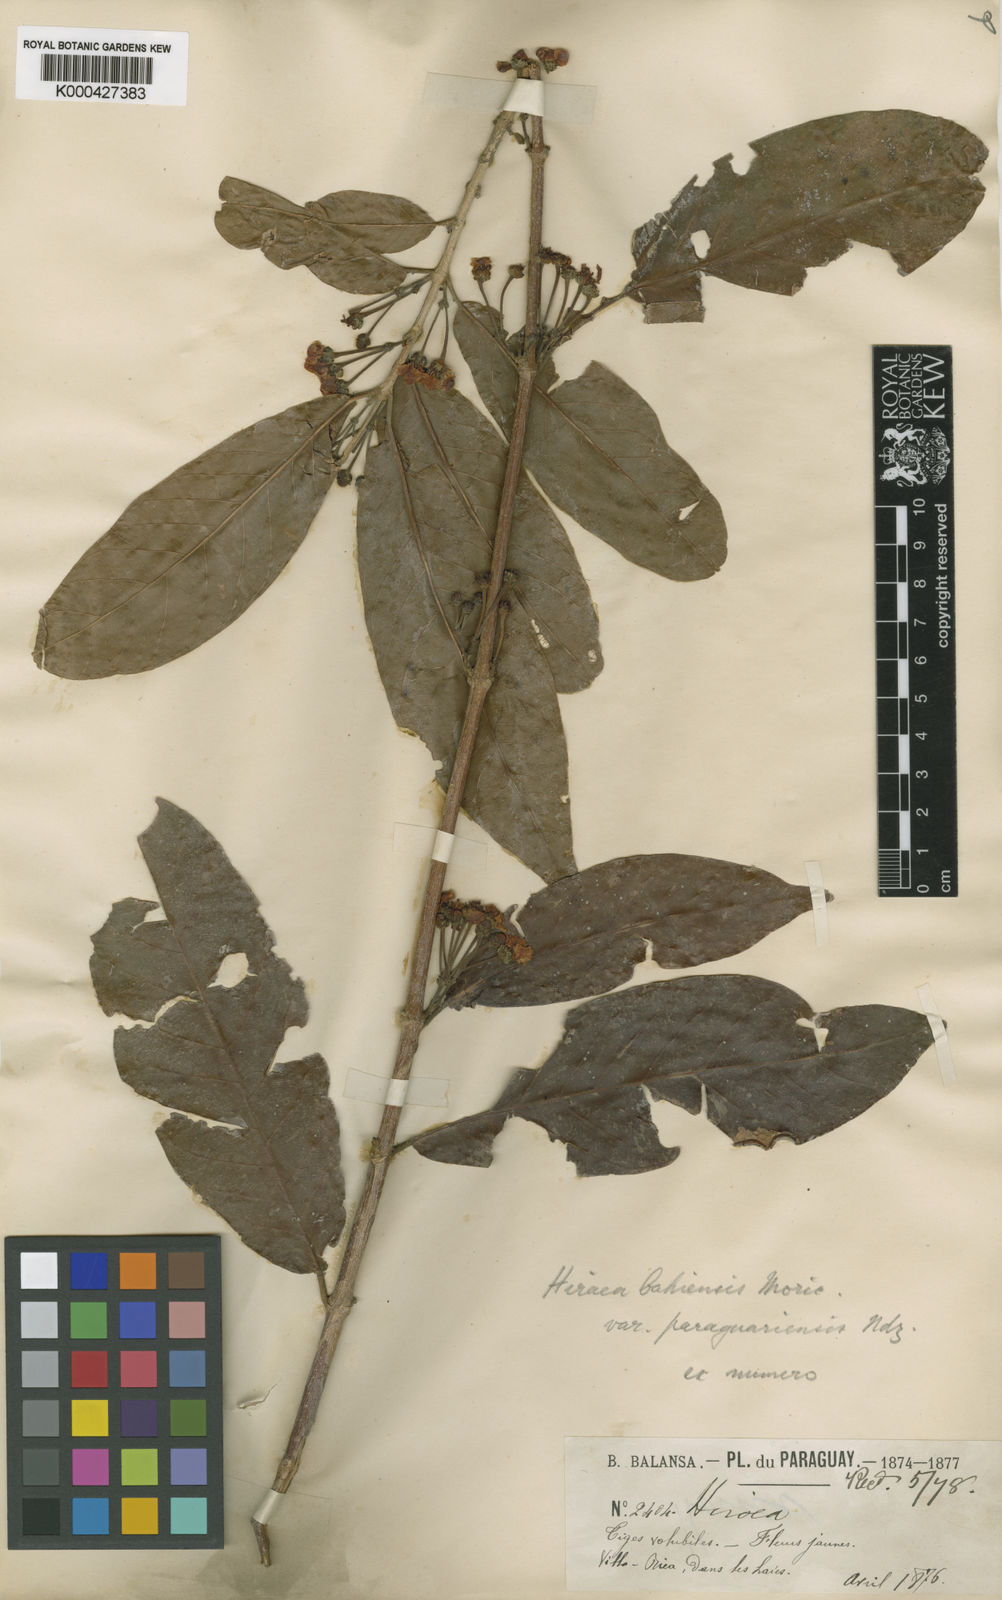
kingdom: Plantae
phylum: Tracheophyta
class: Magnoliopsida
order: Malpighiales
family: Malpighiaceae
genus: Hiraea
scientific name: Hiraea fagifolia
